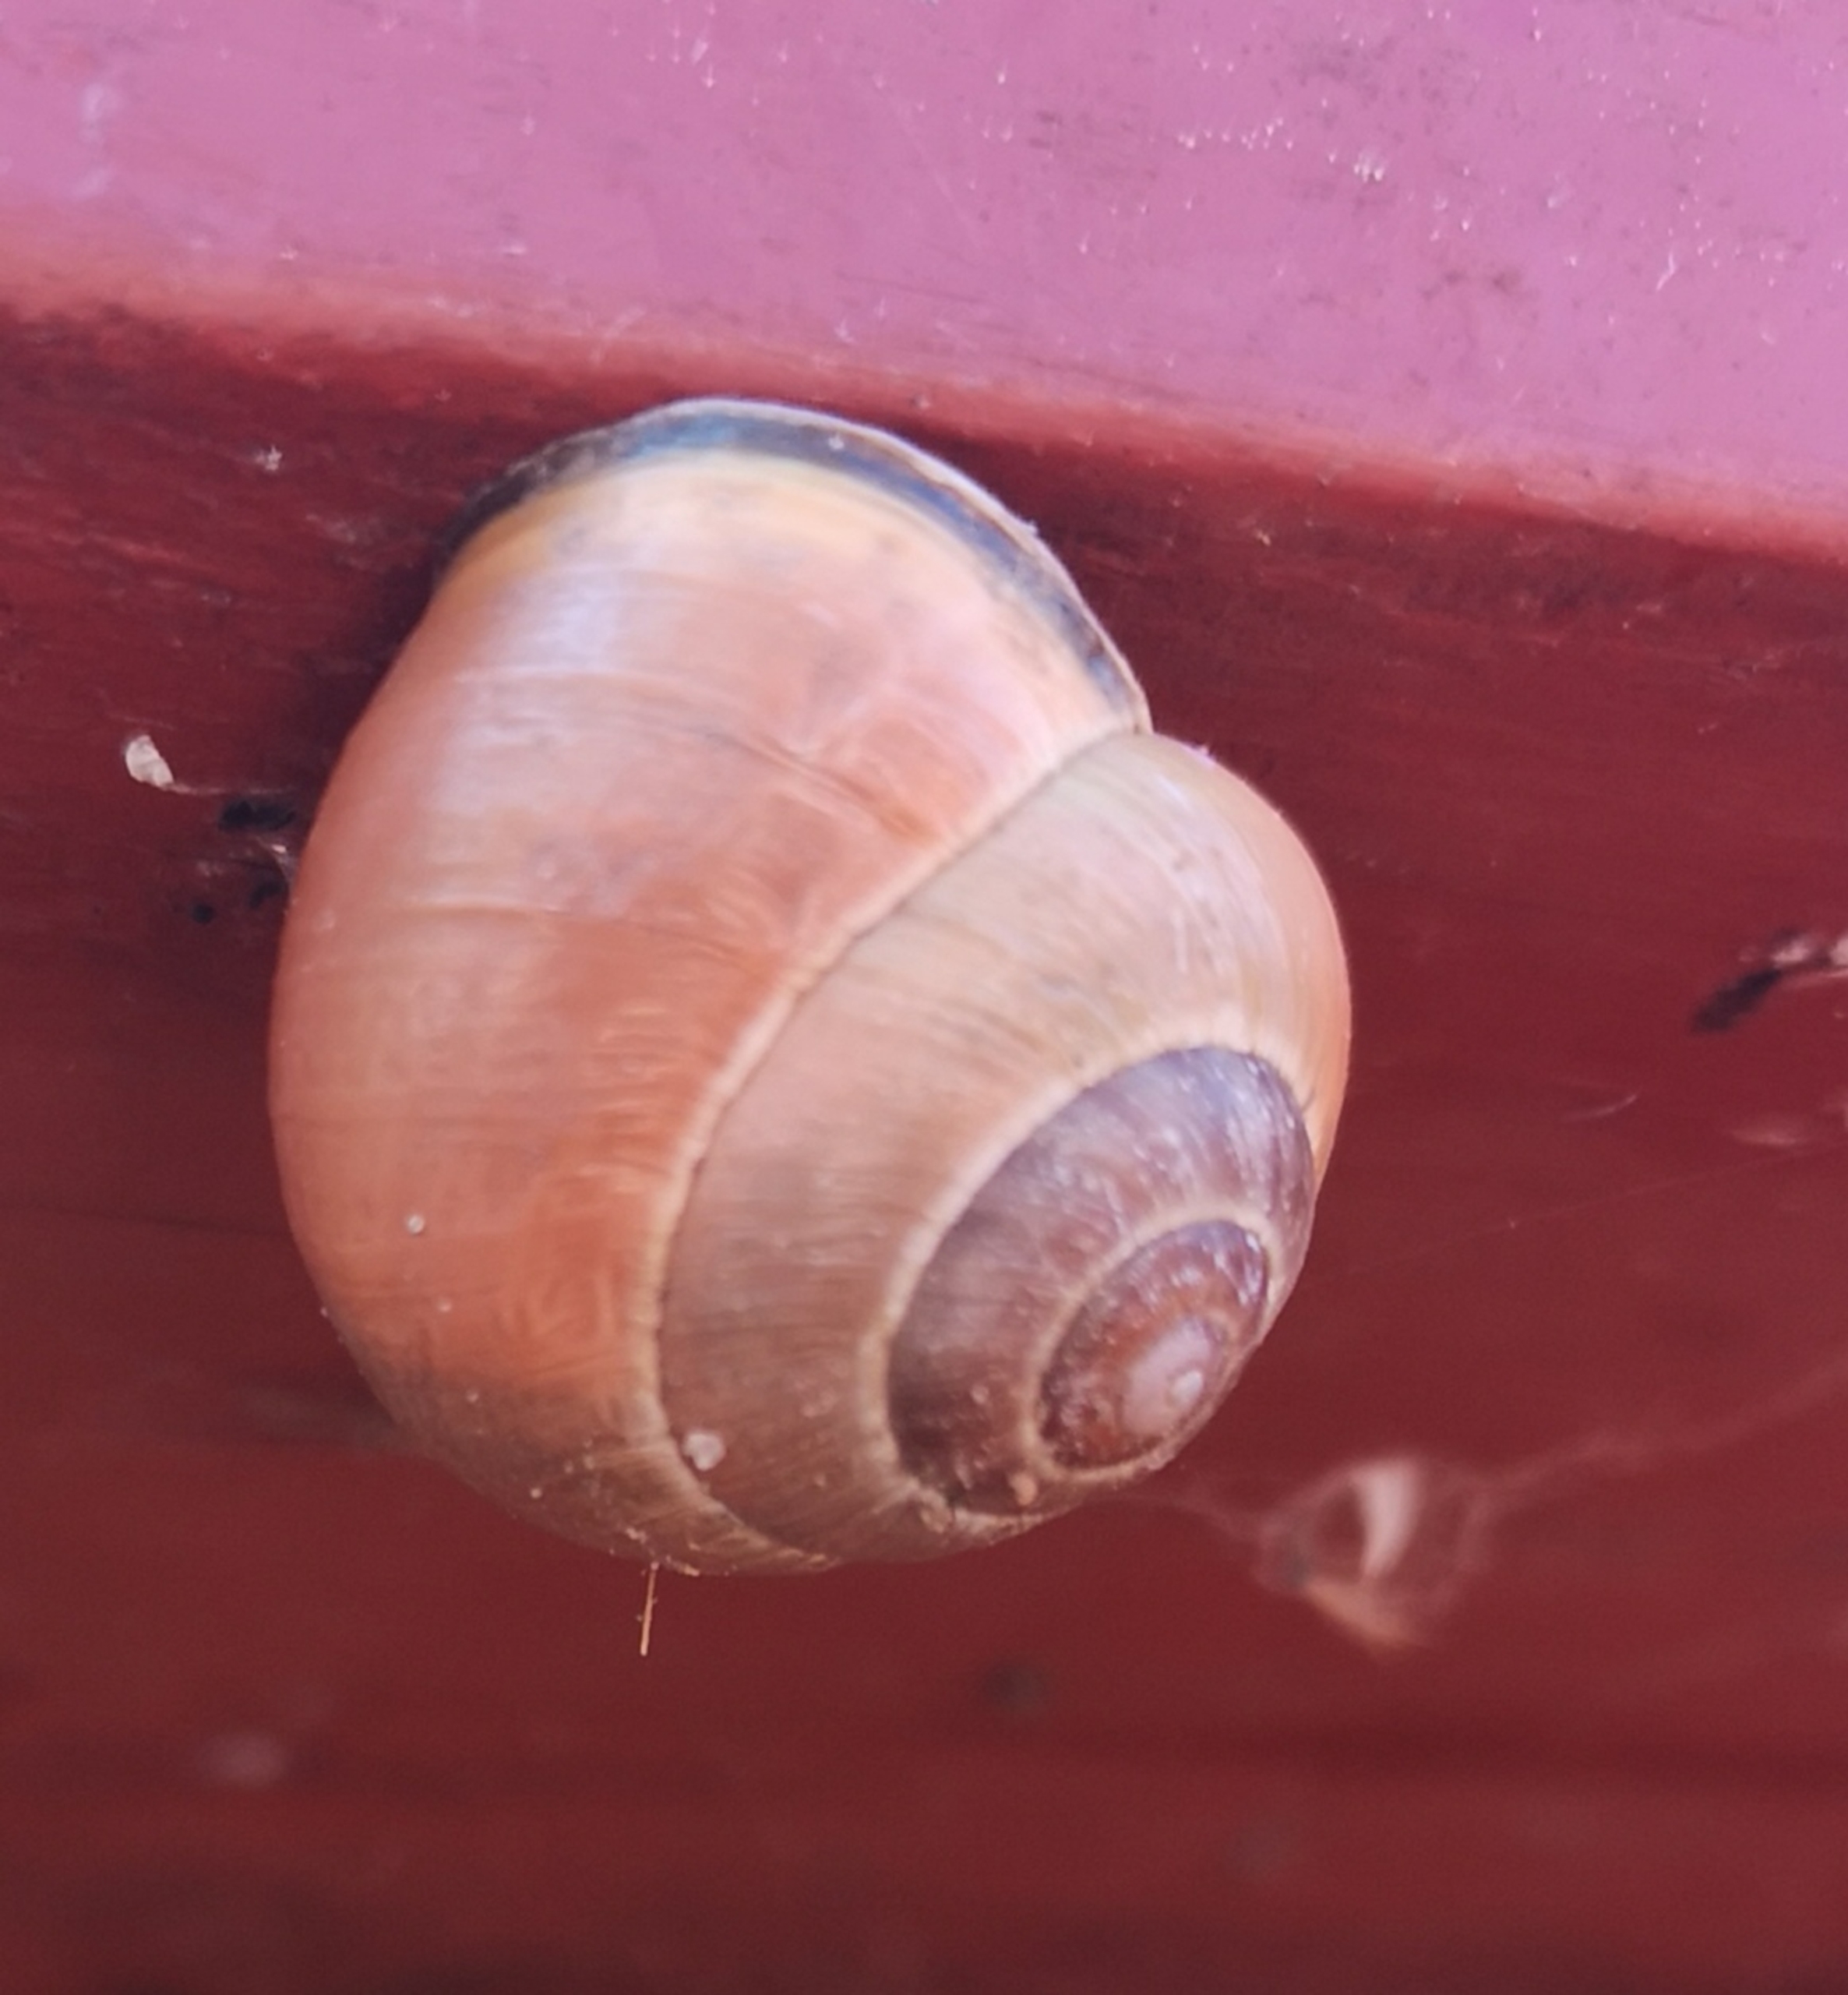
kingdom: Animalia
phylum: Mollusca
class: Gastropoda
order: Stylommatophora
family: Helicidae
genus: Cepaea
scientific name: Cepaea nemoralis
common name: Lundsnegl
